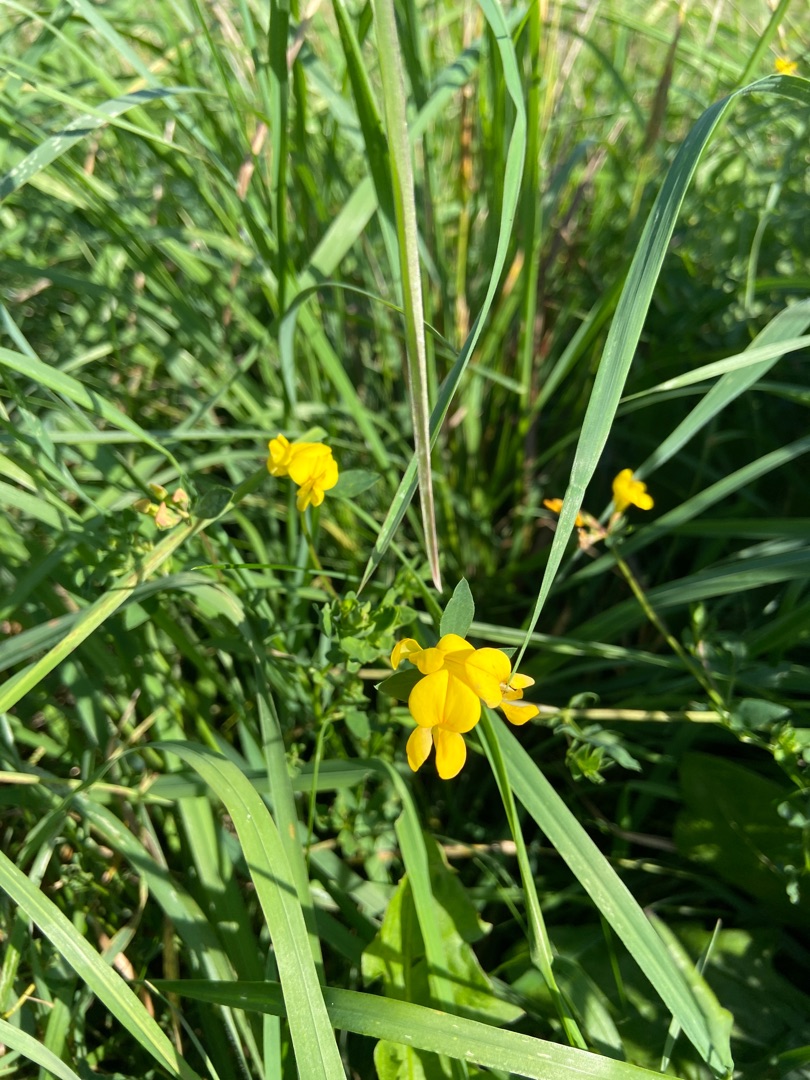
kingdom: Plantae
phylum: Tracheophyta
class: Magnoliopsida
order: Fabales
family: Fabaceae
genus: Lotus
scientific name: Lotus corniculatus
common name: Almindelig kællingetand
